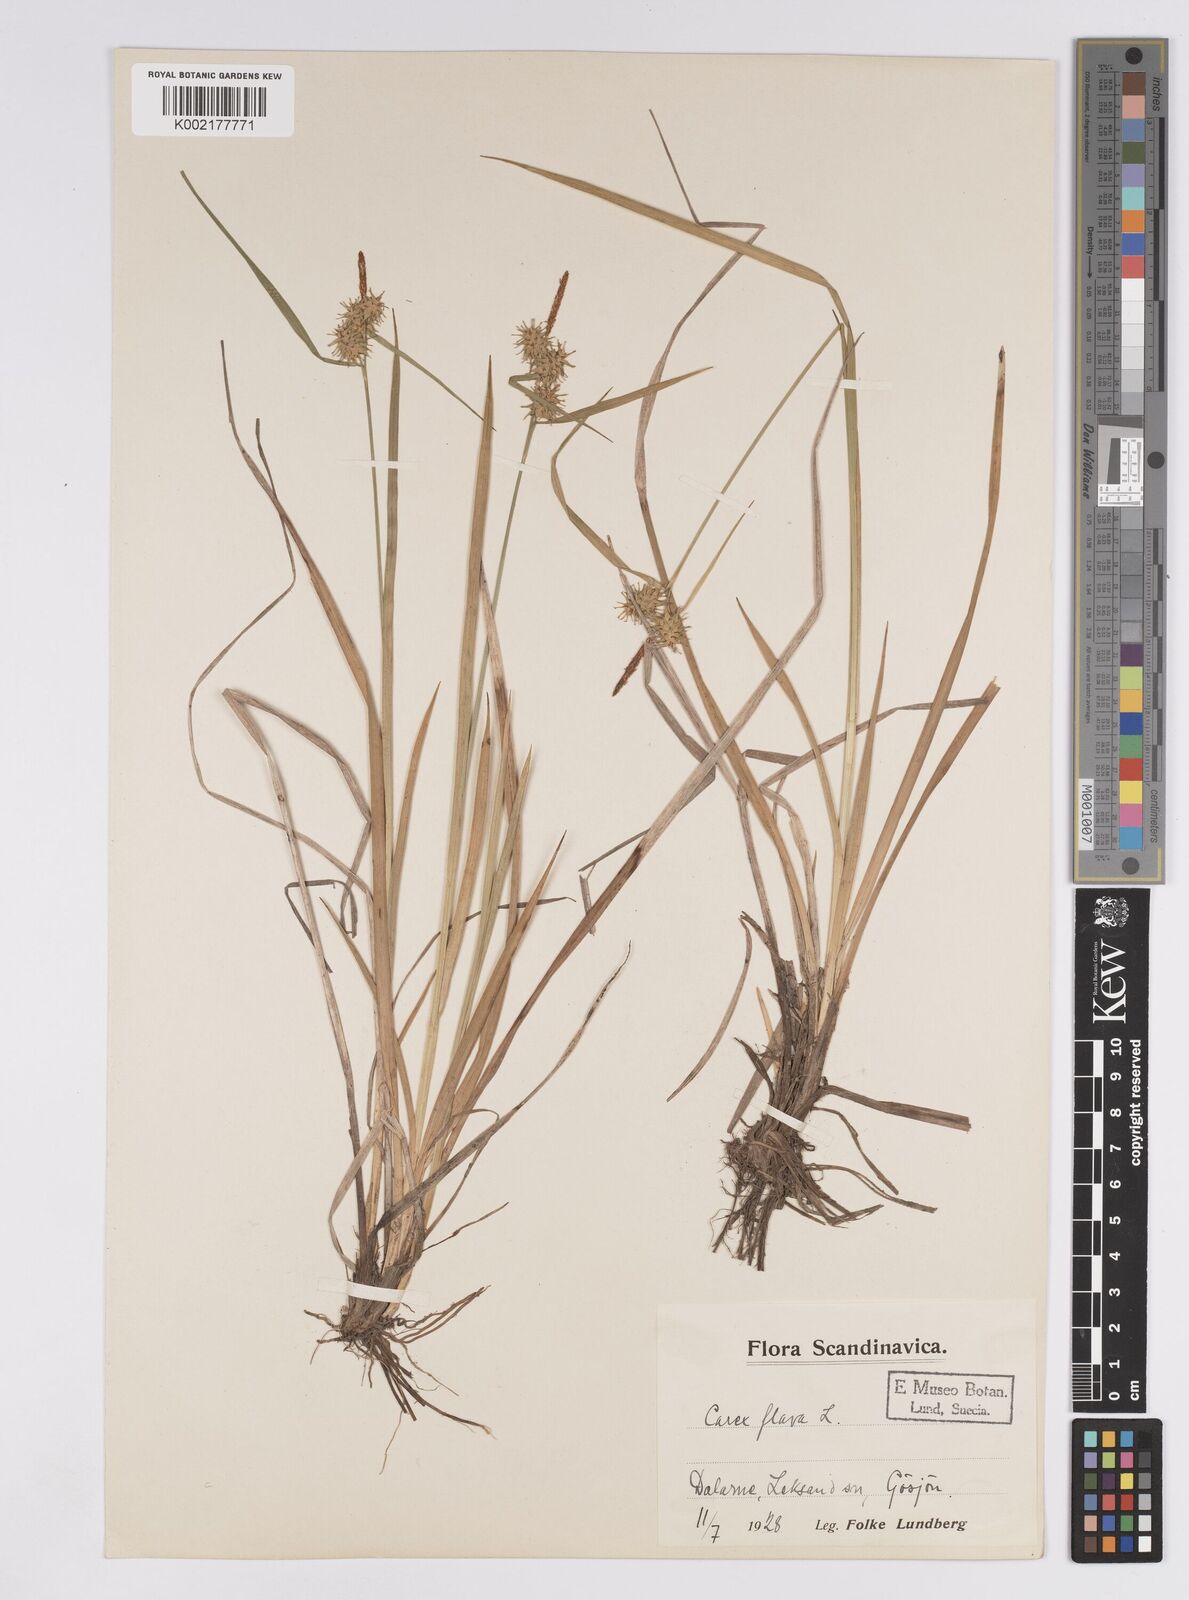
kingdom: Plantae
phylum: Tracheophyta
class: Liliopsida
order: Poales
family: Cyperaceae
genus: Carex
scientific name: Carex flava
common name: Large yellow-sedge
